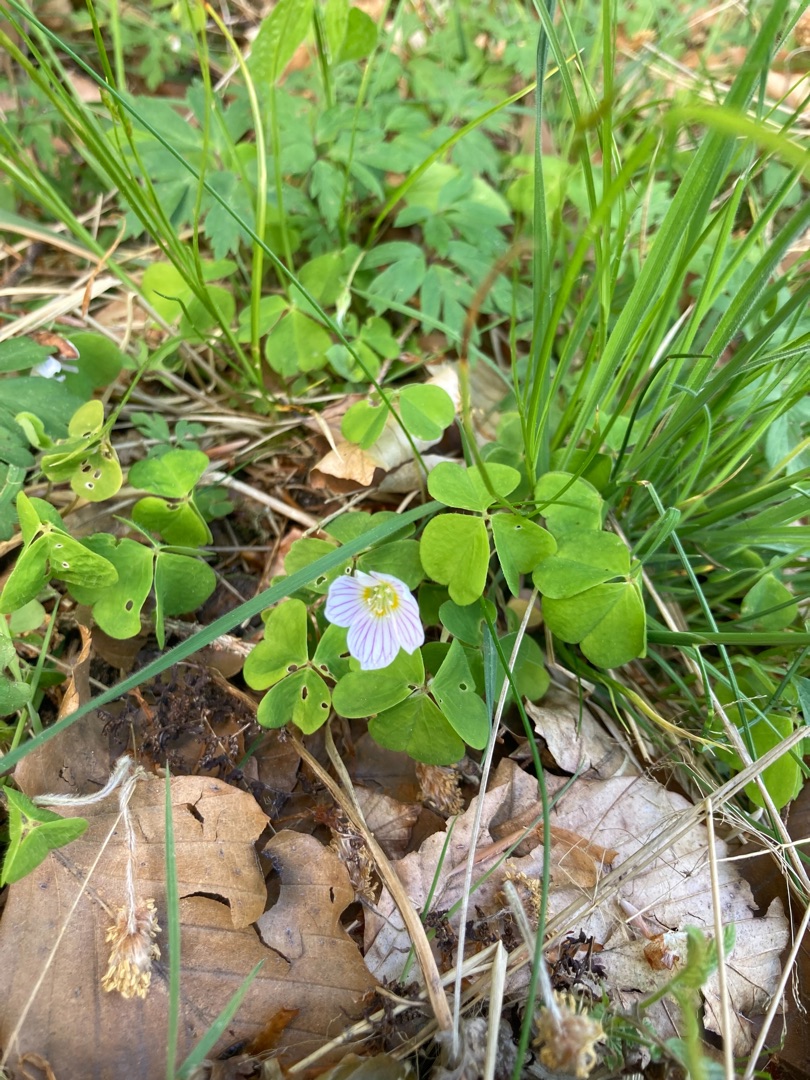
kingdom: Plantae
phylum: Tracheophyta
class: Magnoliopsida
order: Oxalidales
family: Oxalidaceae
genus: Oxalis
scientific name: Oxalis acetosella
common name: Skovsyre
